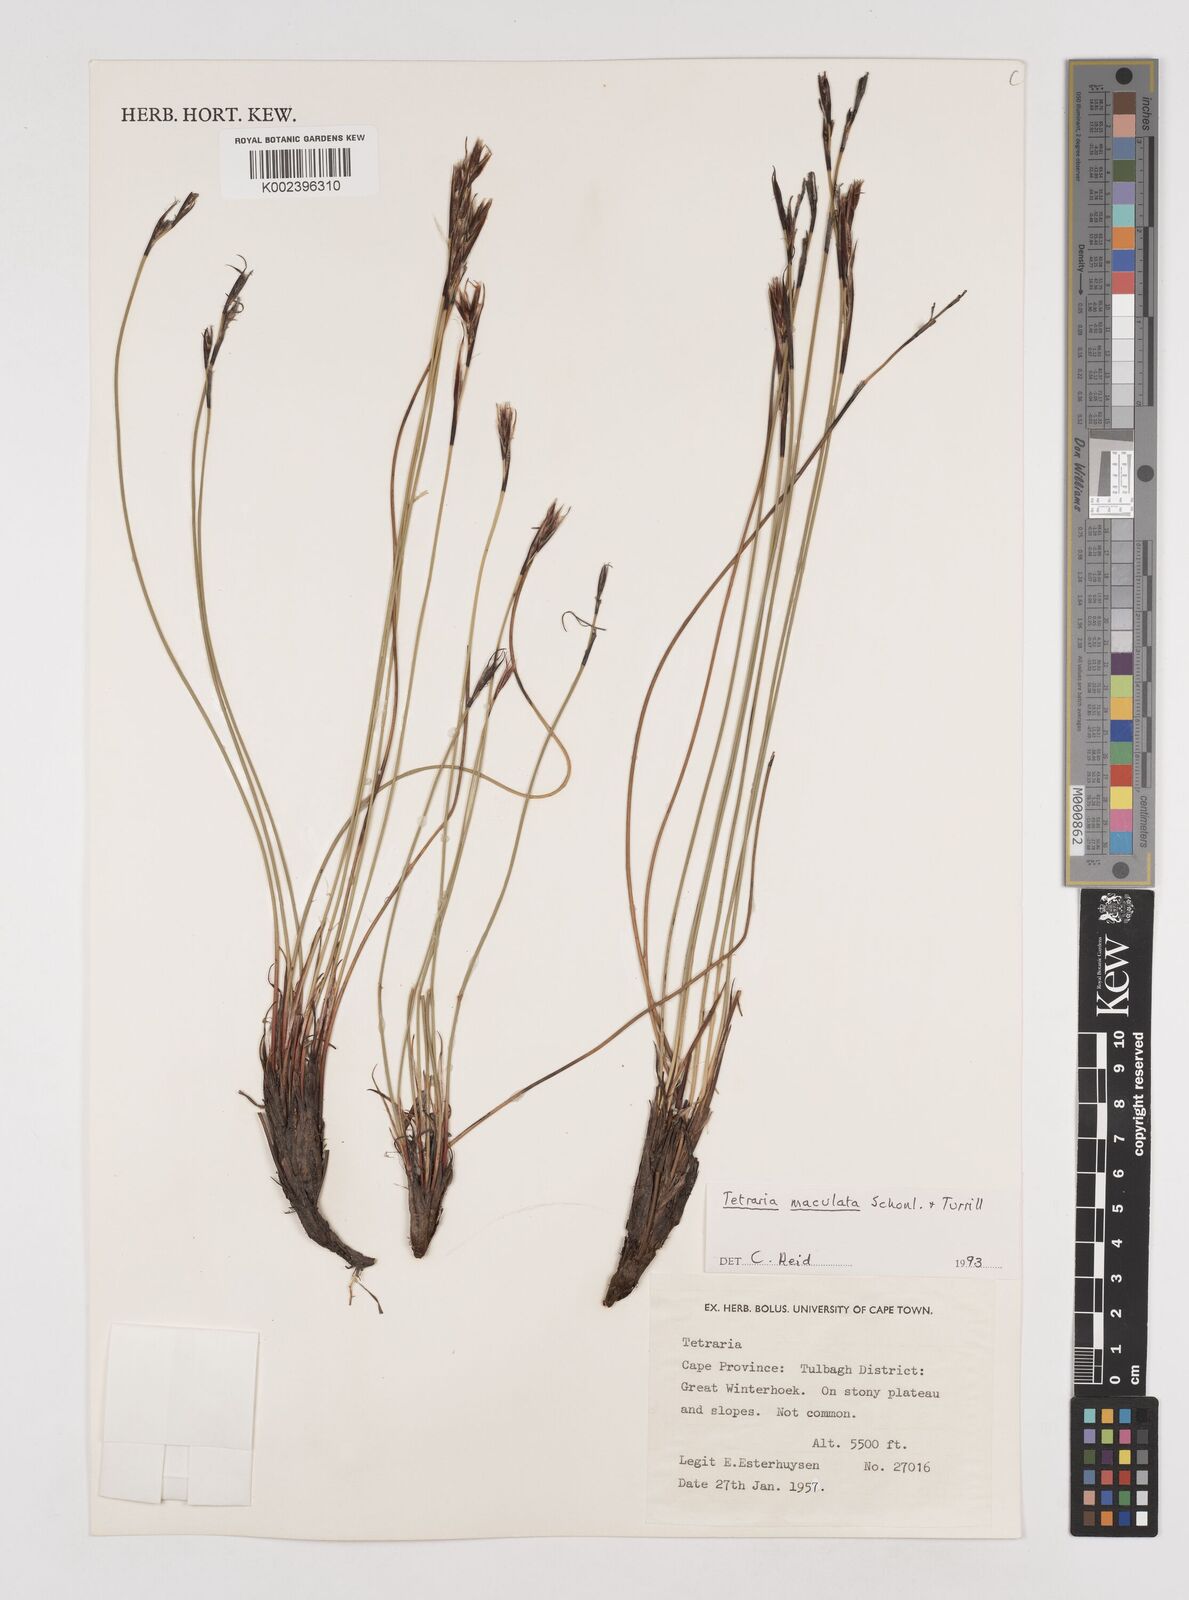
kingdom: Plantae
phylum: Tracheophyta
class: Liliopsida
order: Poales
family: Cyperaceae
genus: Tetraria
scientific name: Tetraria maculata
